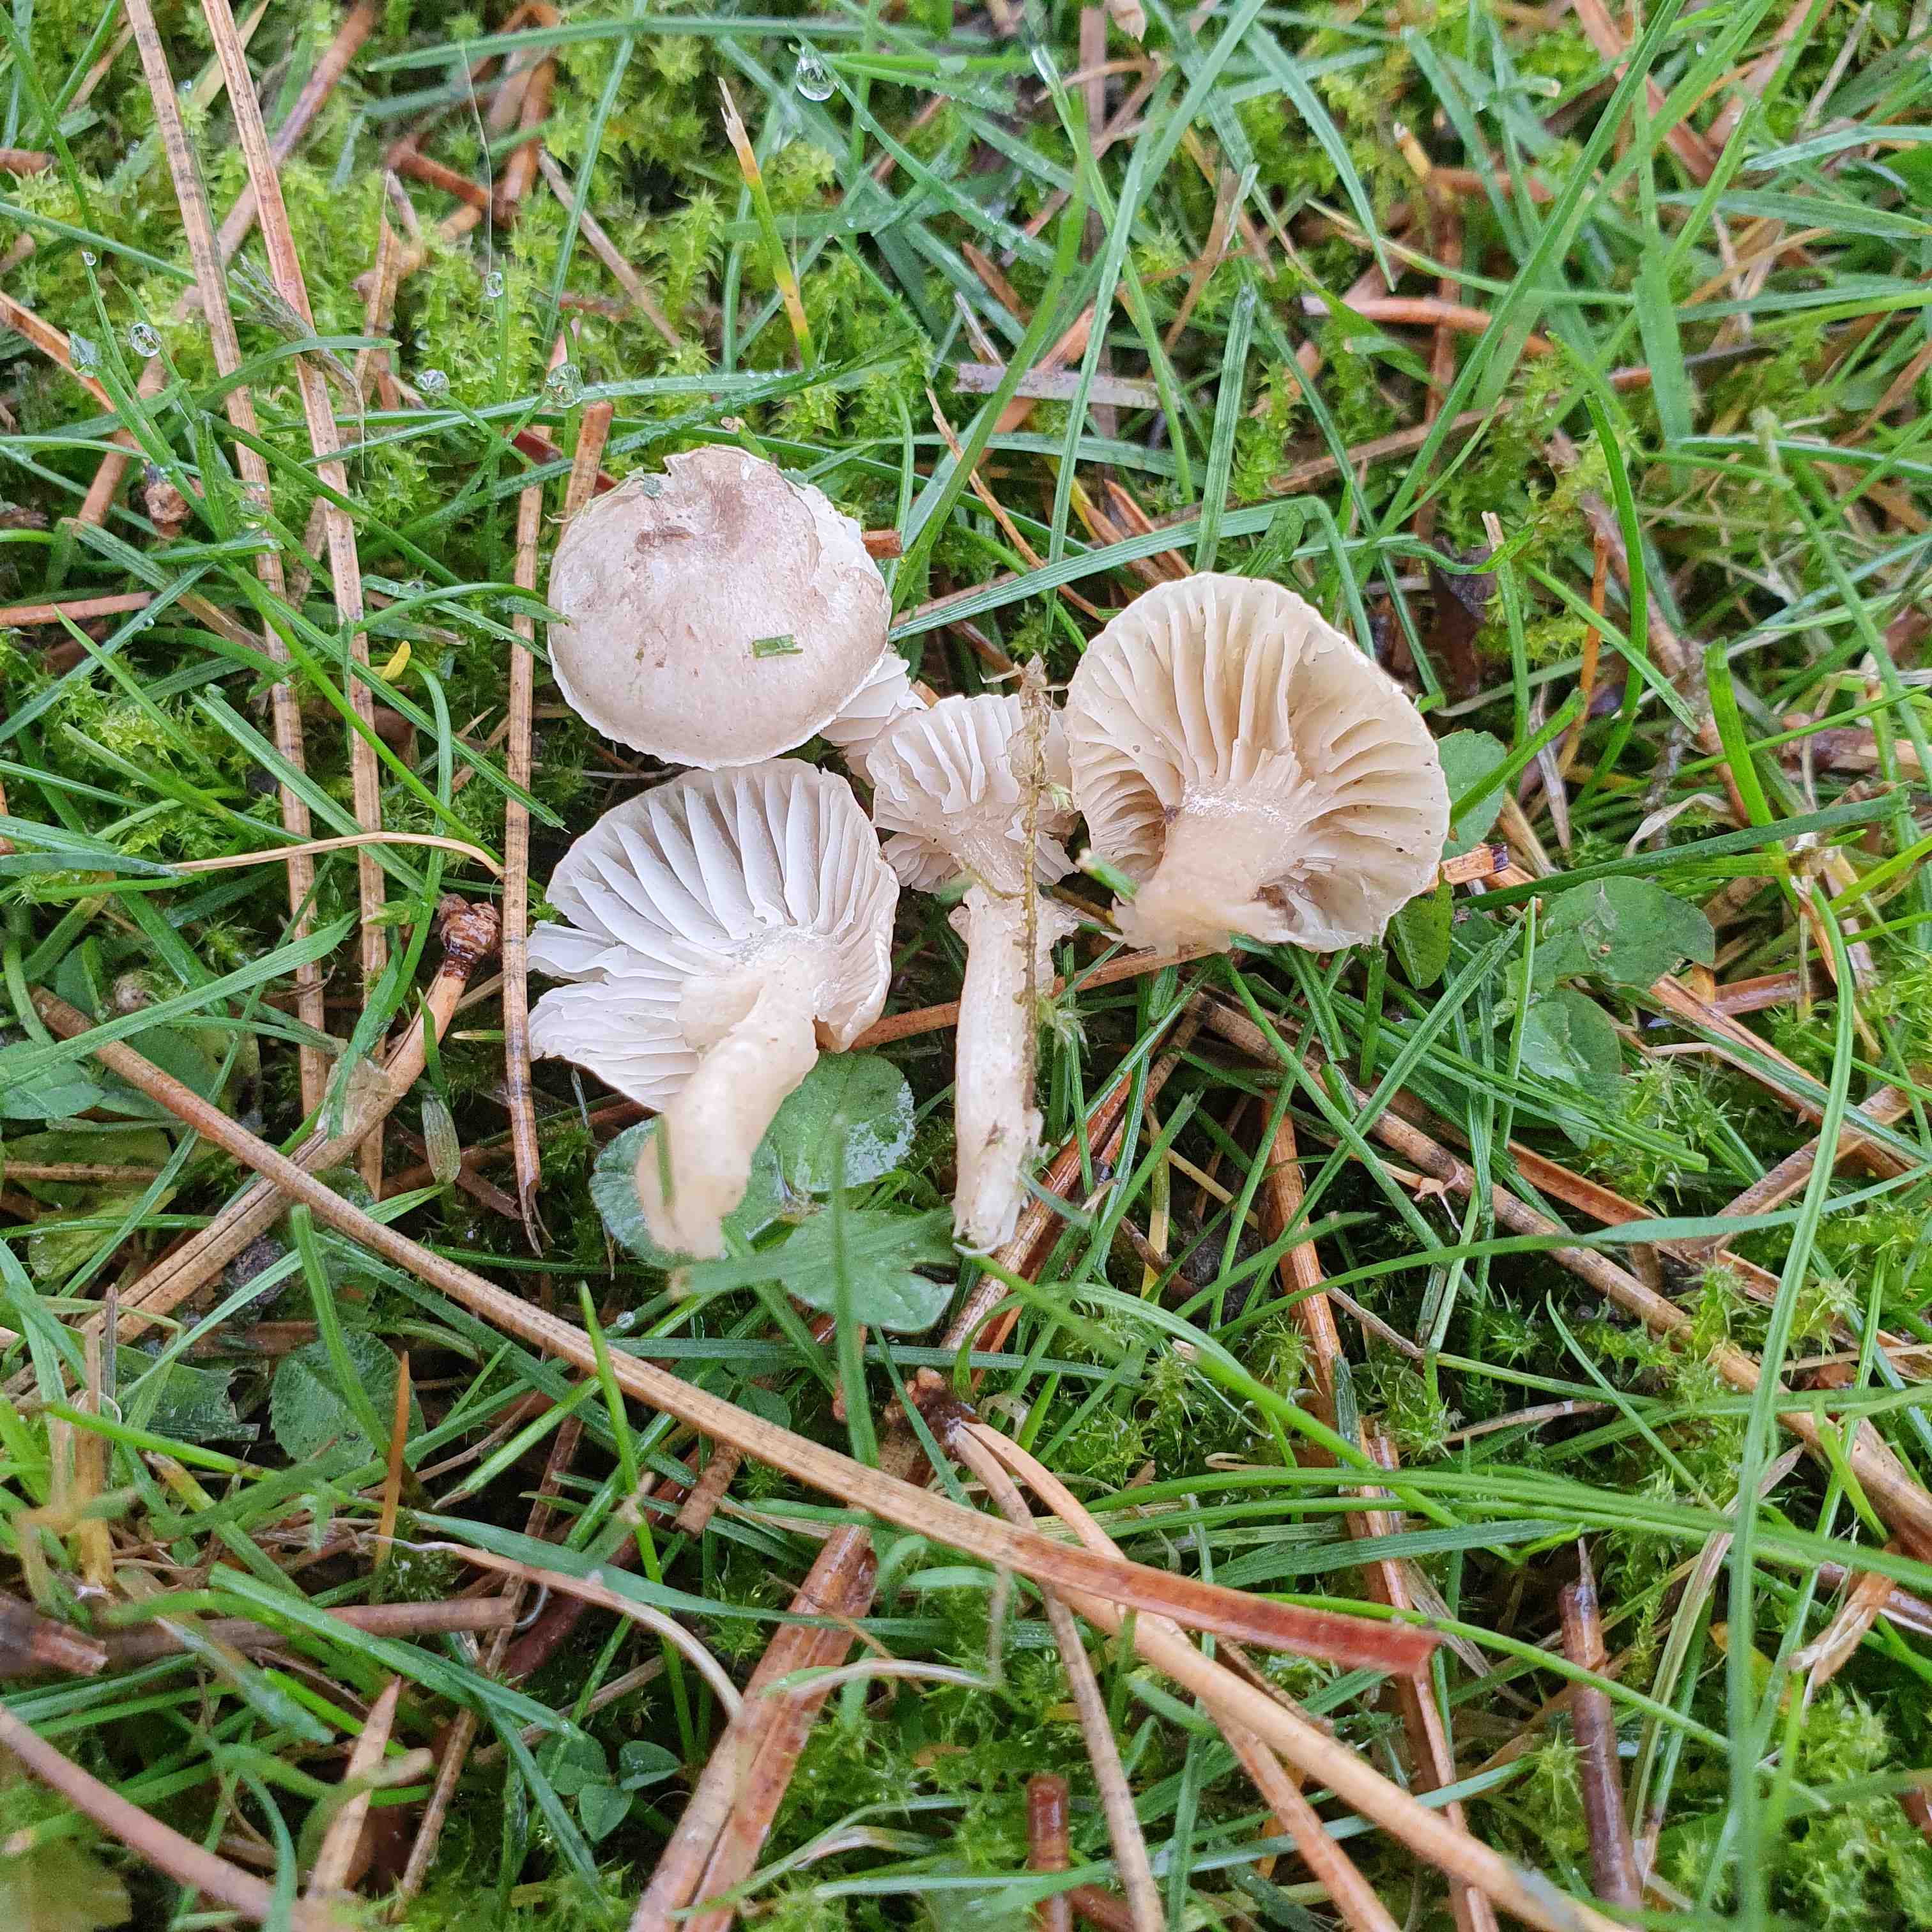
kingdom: Fungi
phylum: Basidiomycota
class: Agaricomycetes
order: Agaricales
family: Hygrophoraceae
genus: Hygrophorus
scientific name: Hygrophorus
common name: sneglehat
